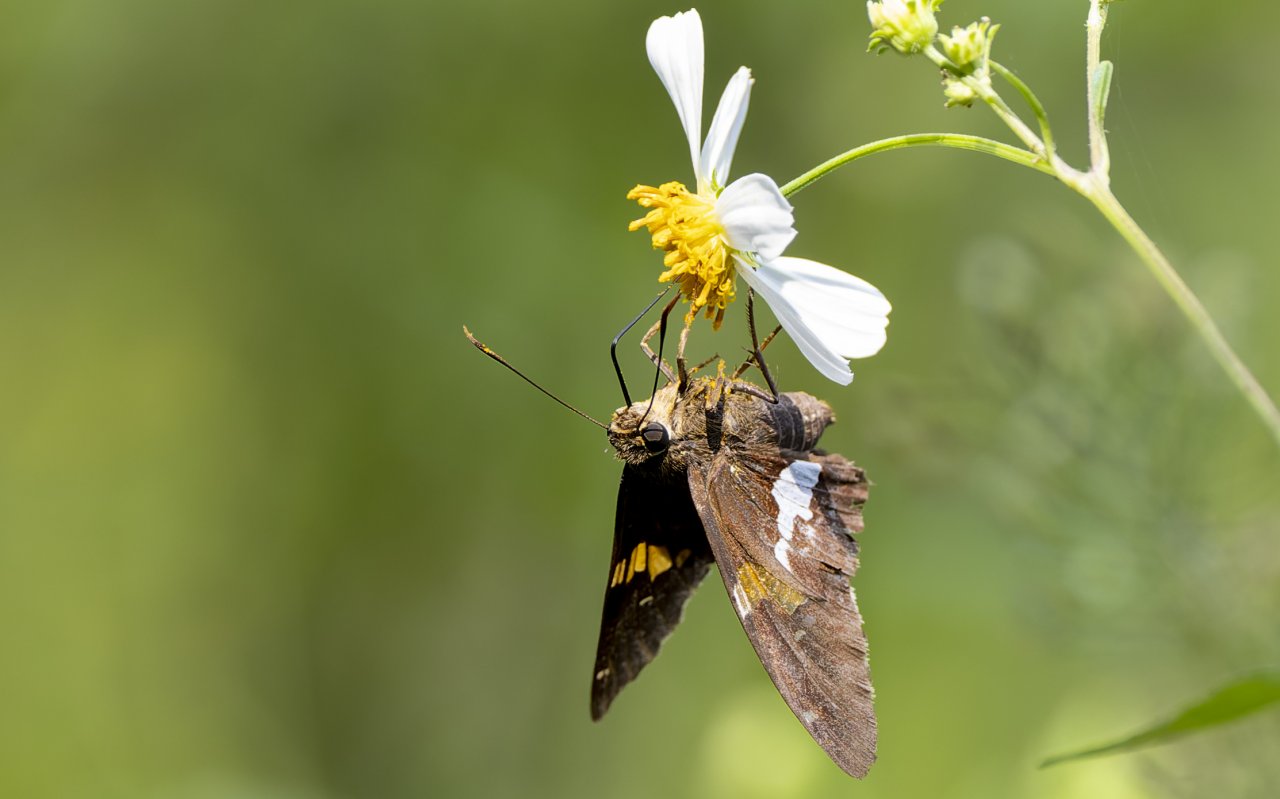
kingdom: Animalia
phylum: Arthropoda
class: Insecta
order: Lepidoptera
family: Hesperiidae
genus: Epargyreus
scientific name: Epargyreus clarus
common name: Silver-spotted Skipper
